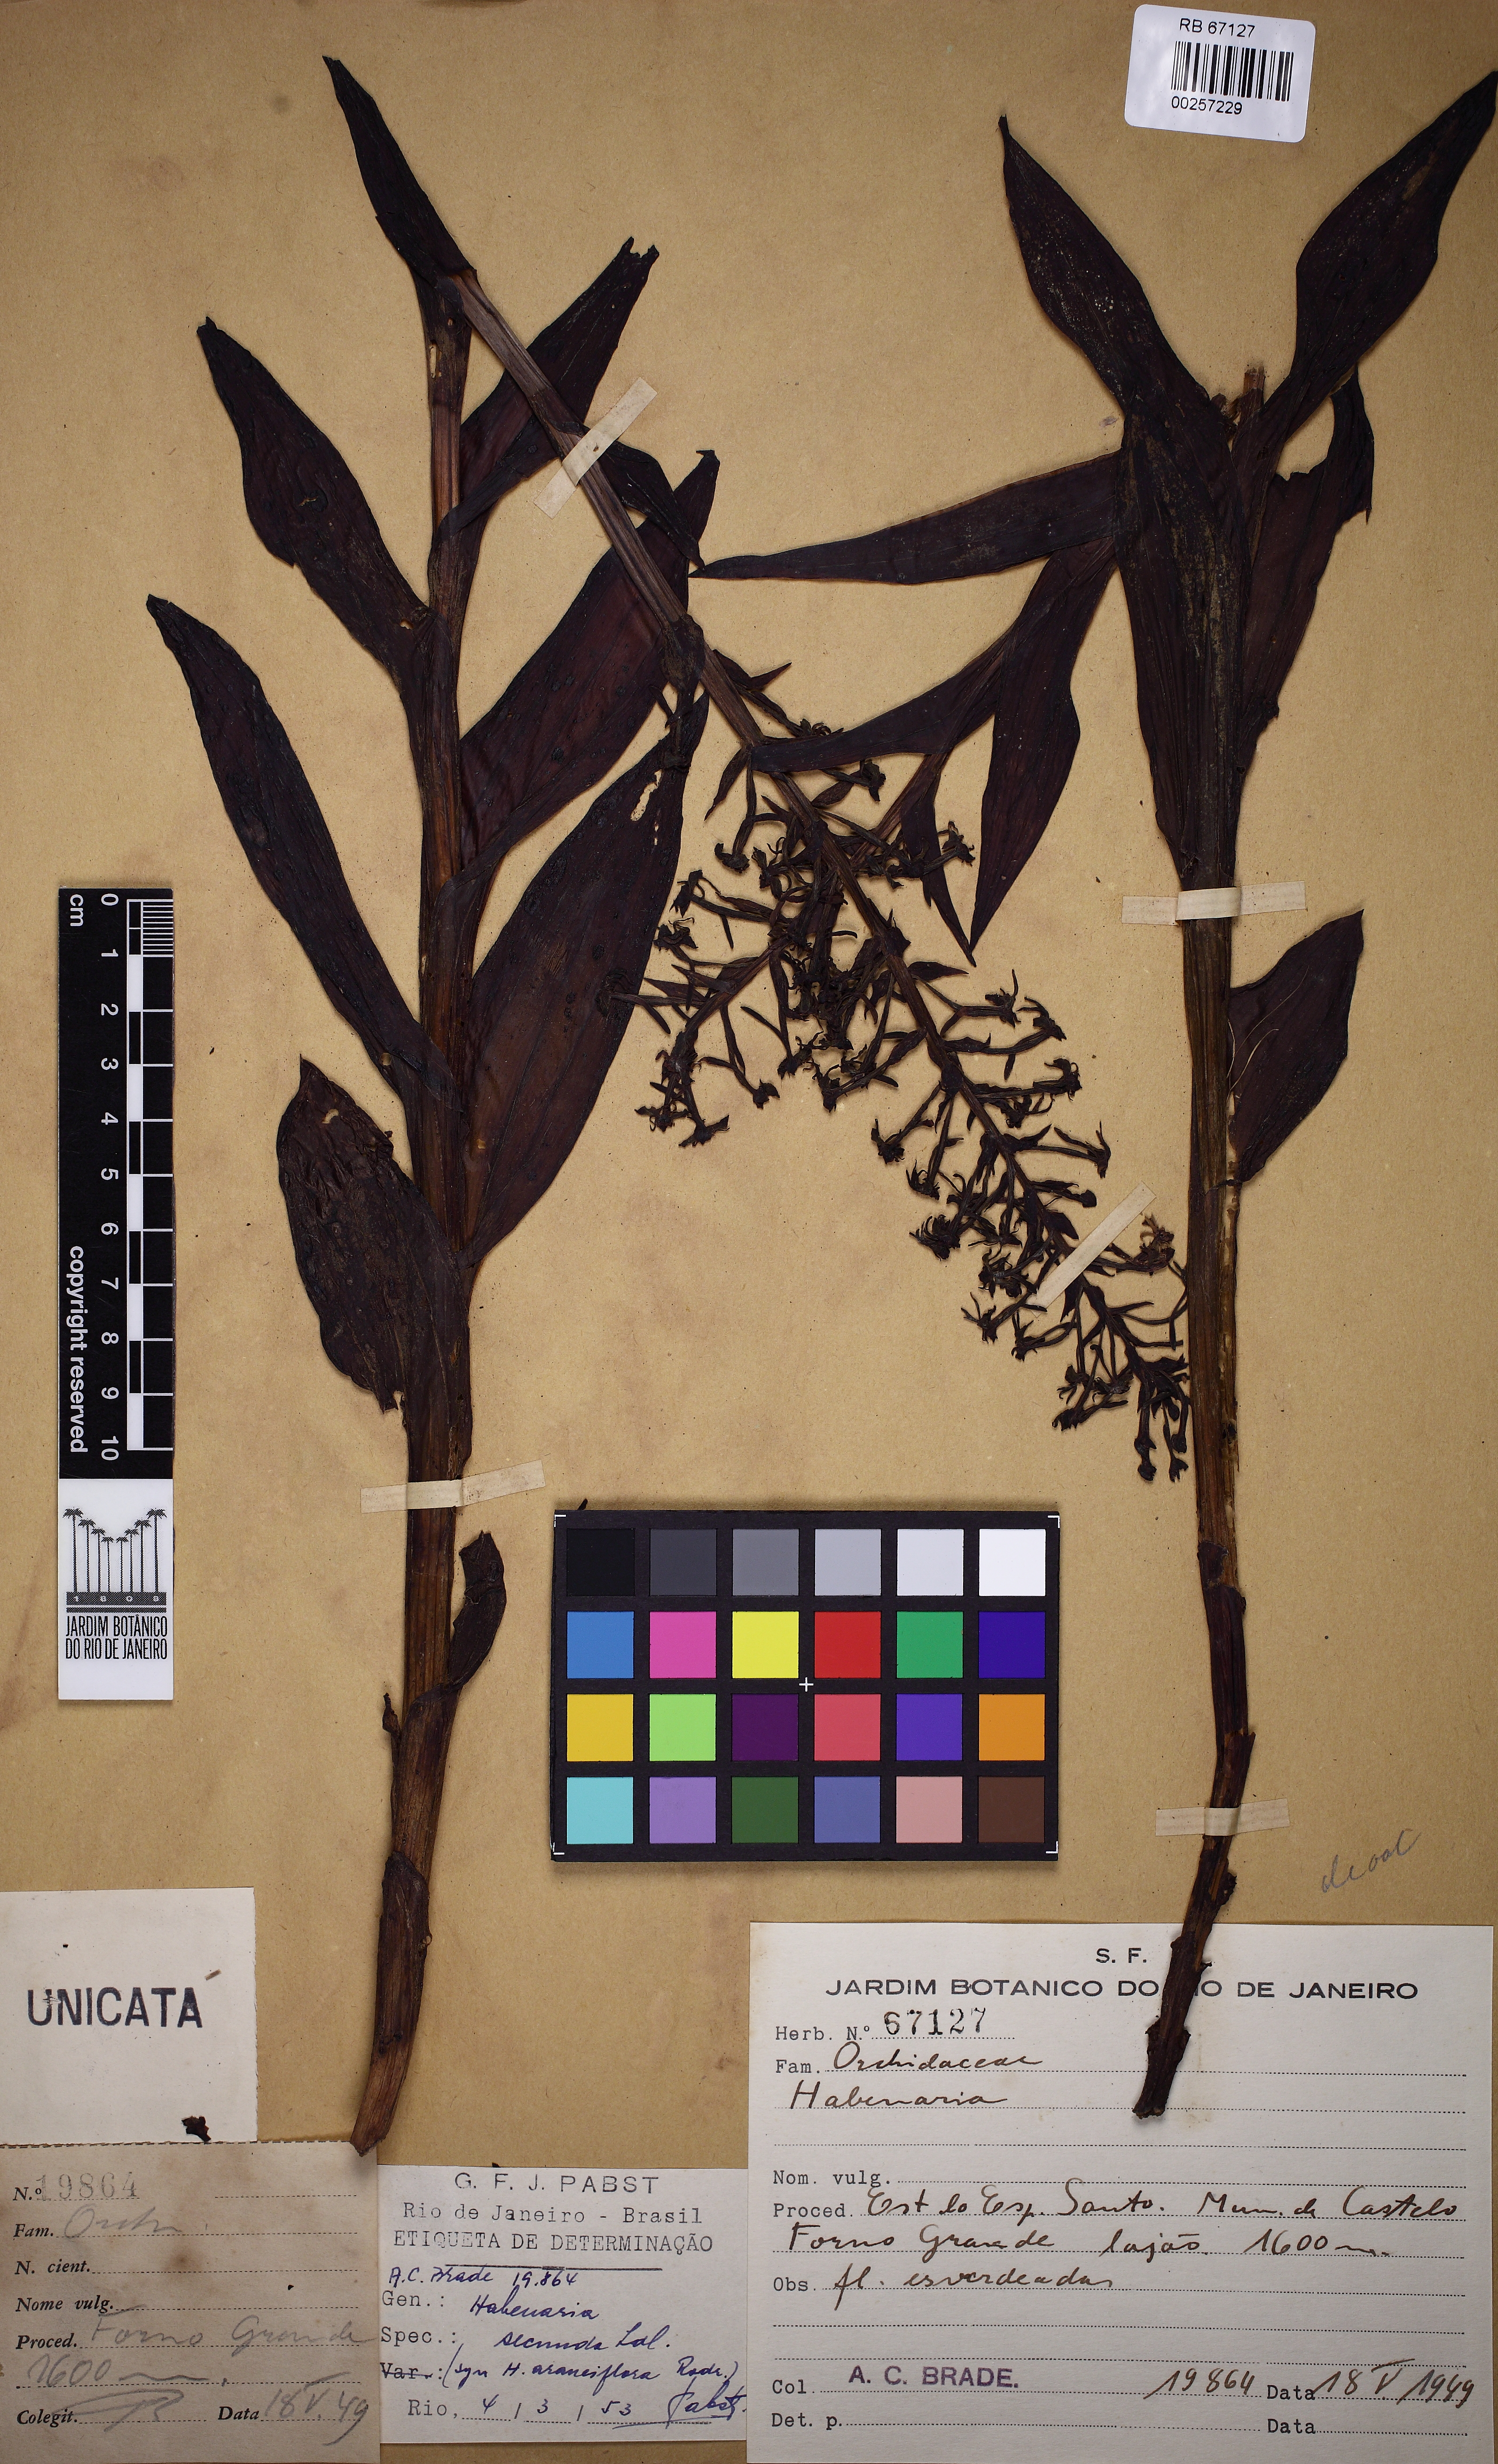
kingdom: Plantae
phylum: Tracheophyta
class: Liliopsida
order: Asparagales
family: Orchidaceae
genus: Habenaria
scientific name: Habenaria araneiflora
